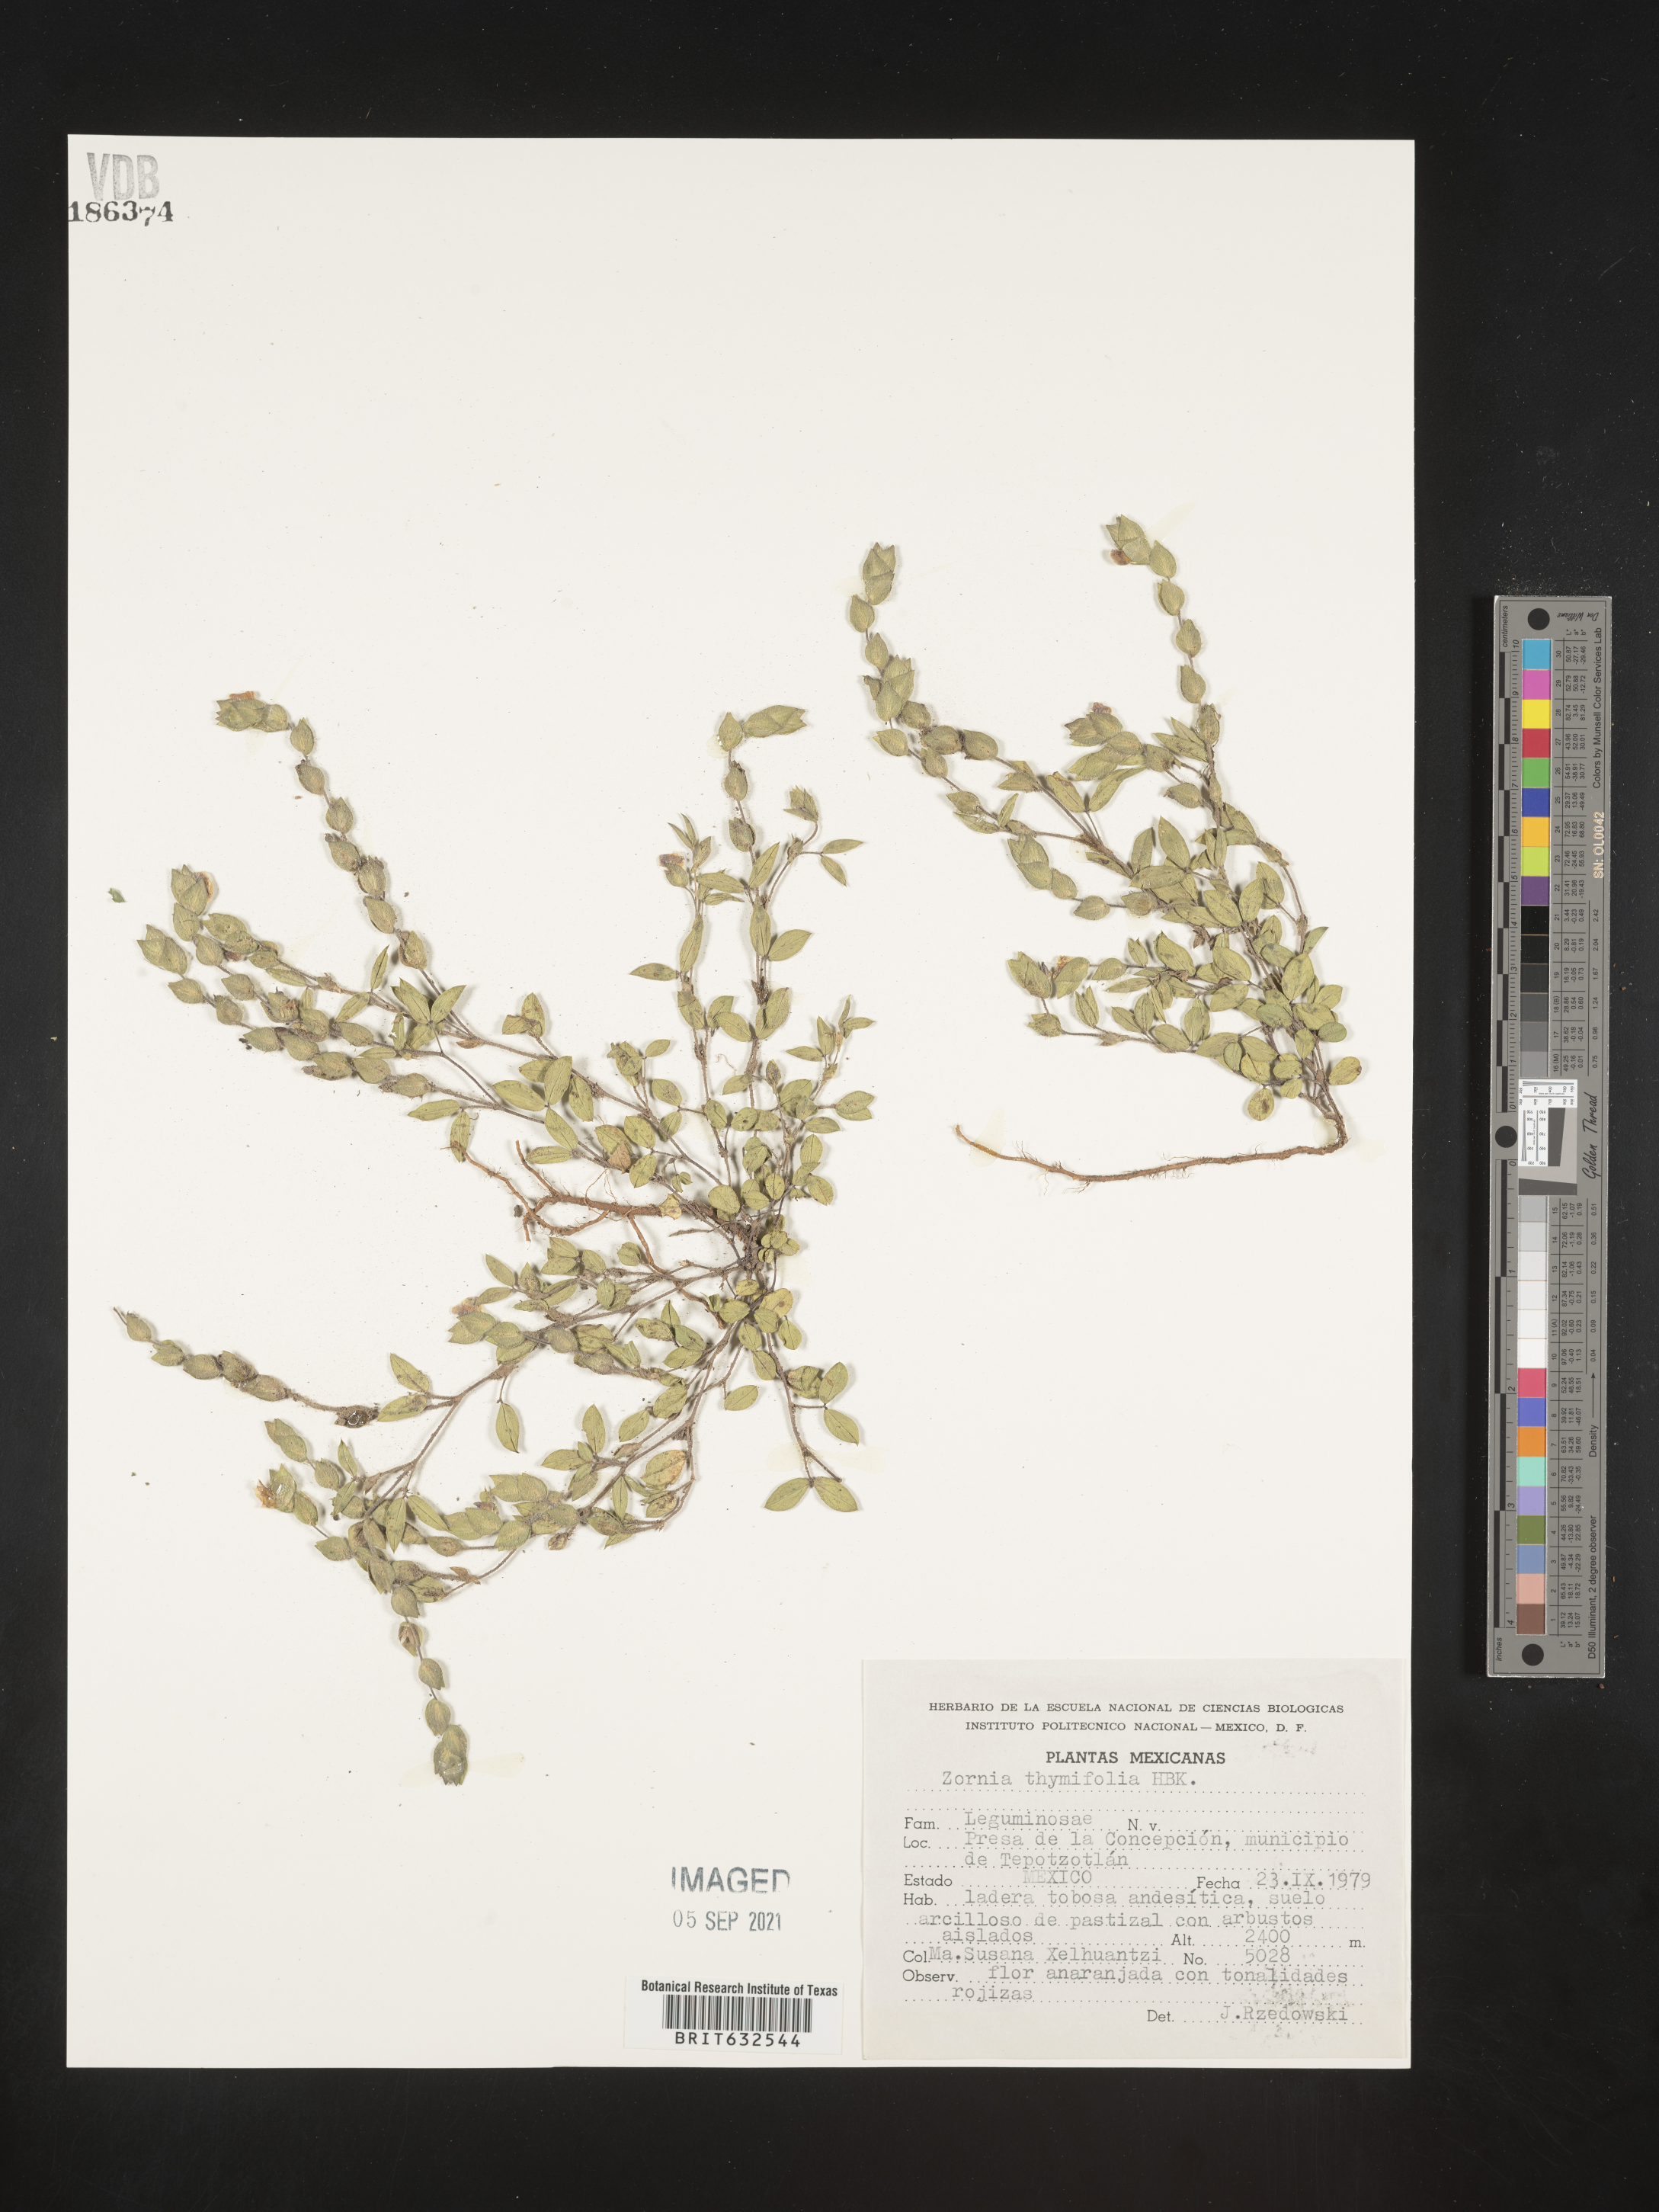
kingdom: Plantae
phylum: Tracheophyta
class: Magnoliopsida
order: Fabales
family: Fabaceae
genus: Zornia
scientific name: Zornia
